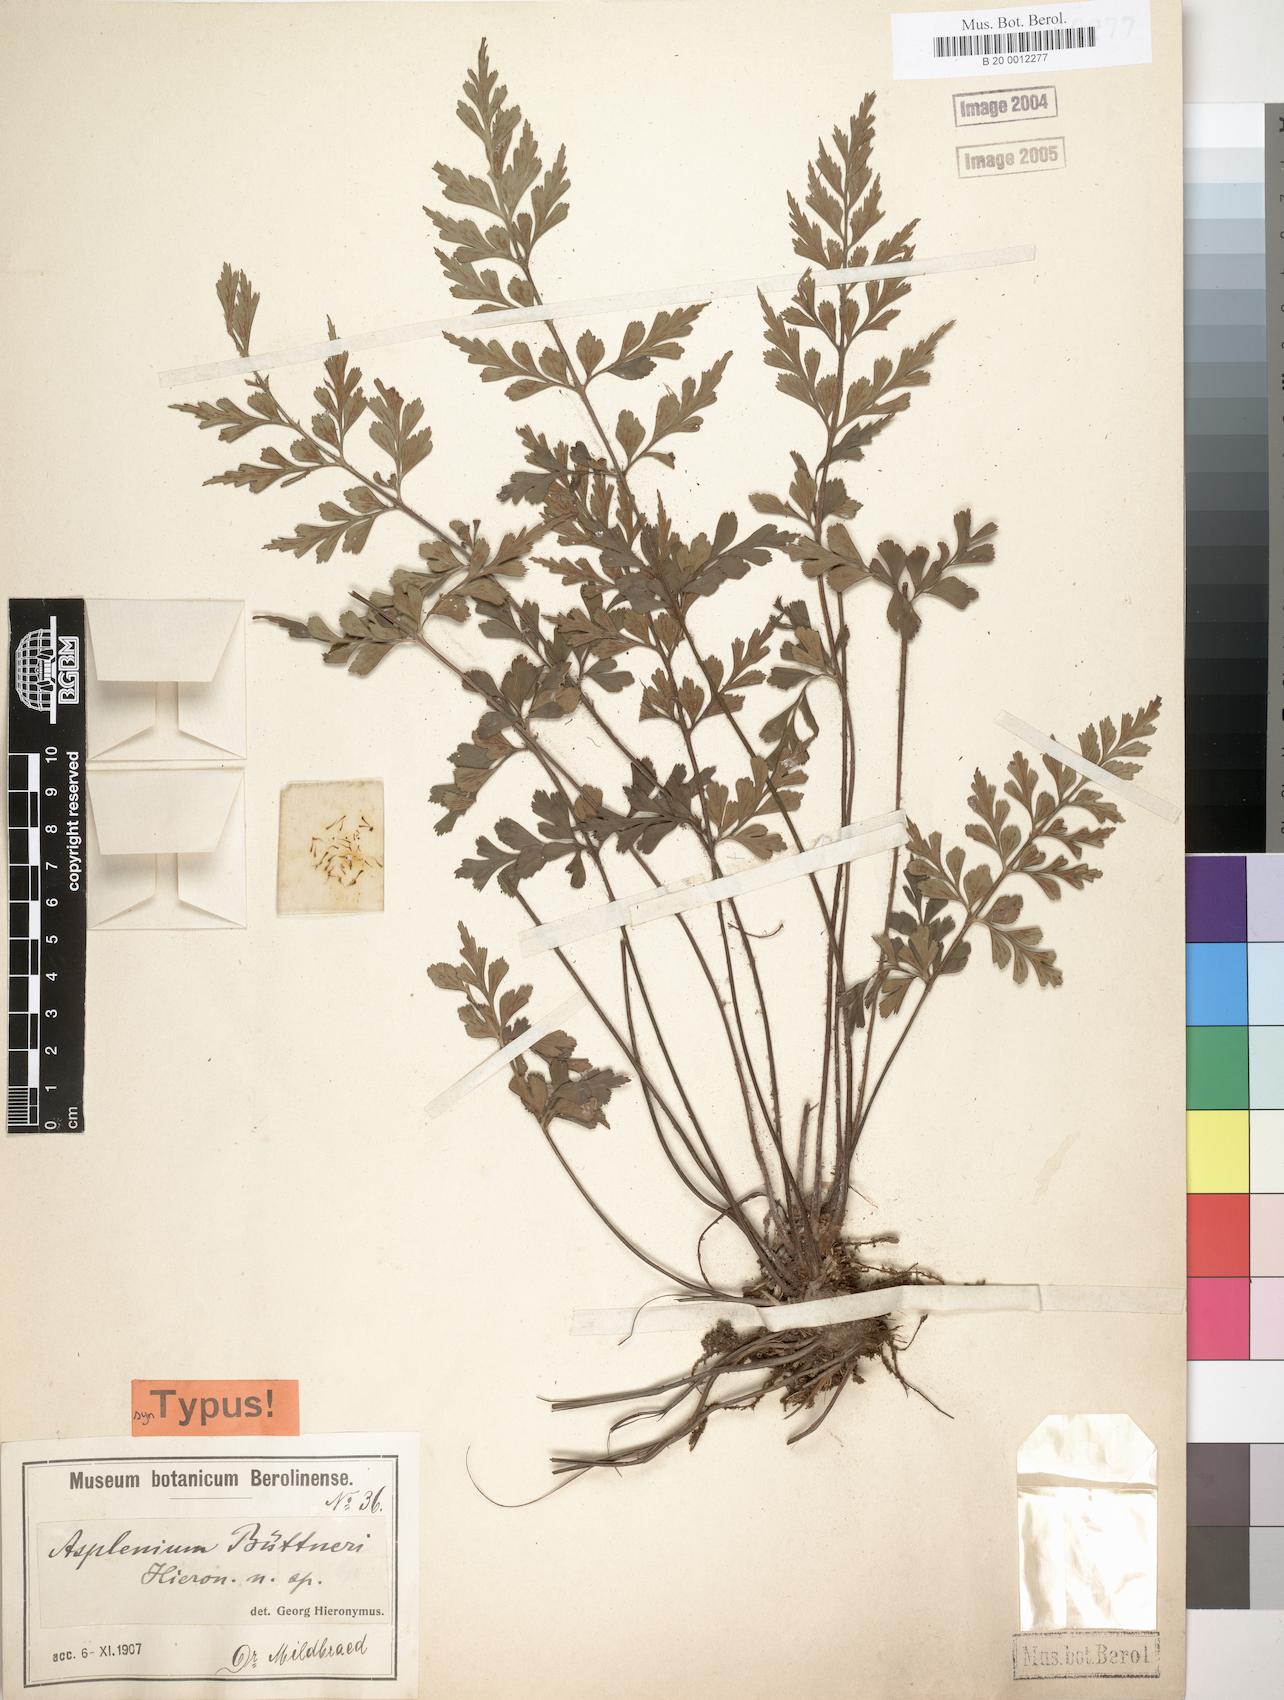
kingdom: Plantae
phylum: Tracheophyta
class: Polypodiopsida
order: Polypodiales
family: Aspleniaceae
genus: Asplenium
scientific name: Asplenium musiraense
